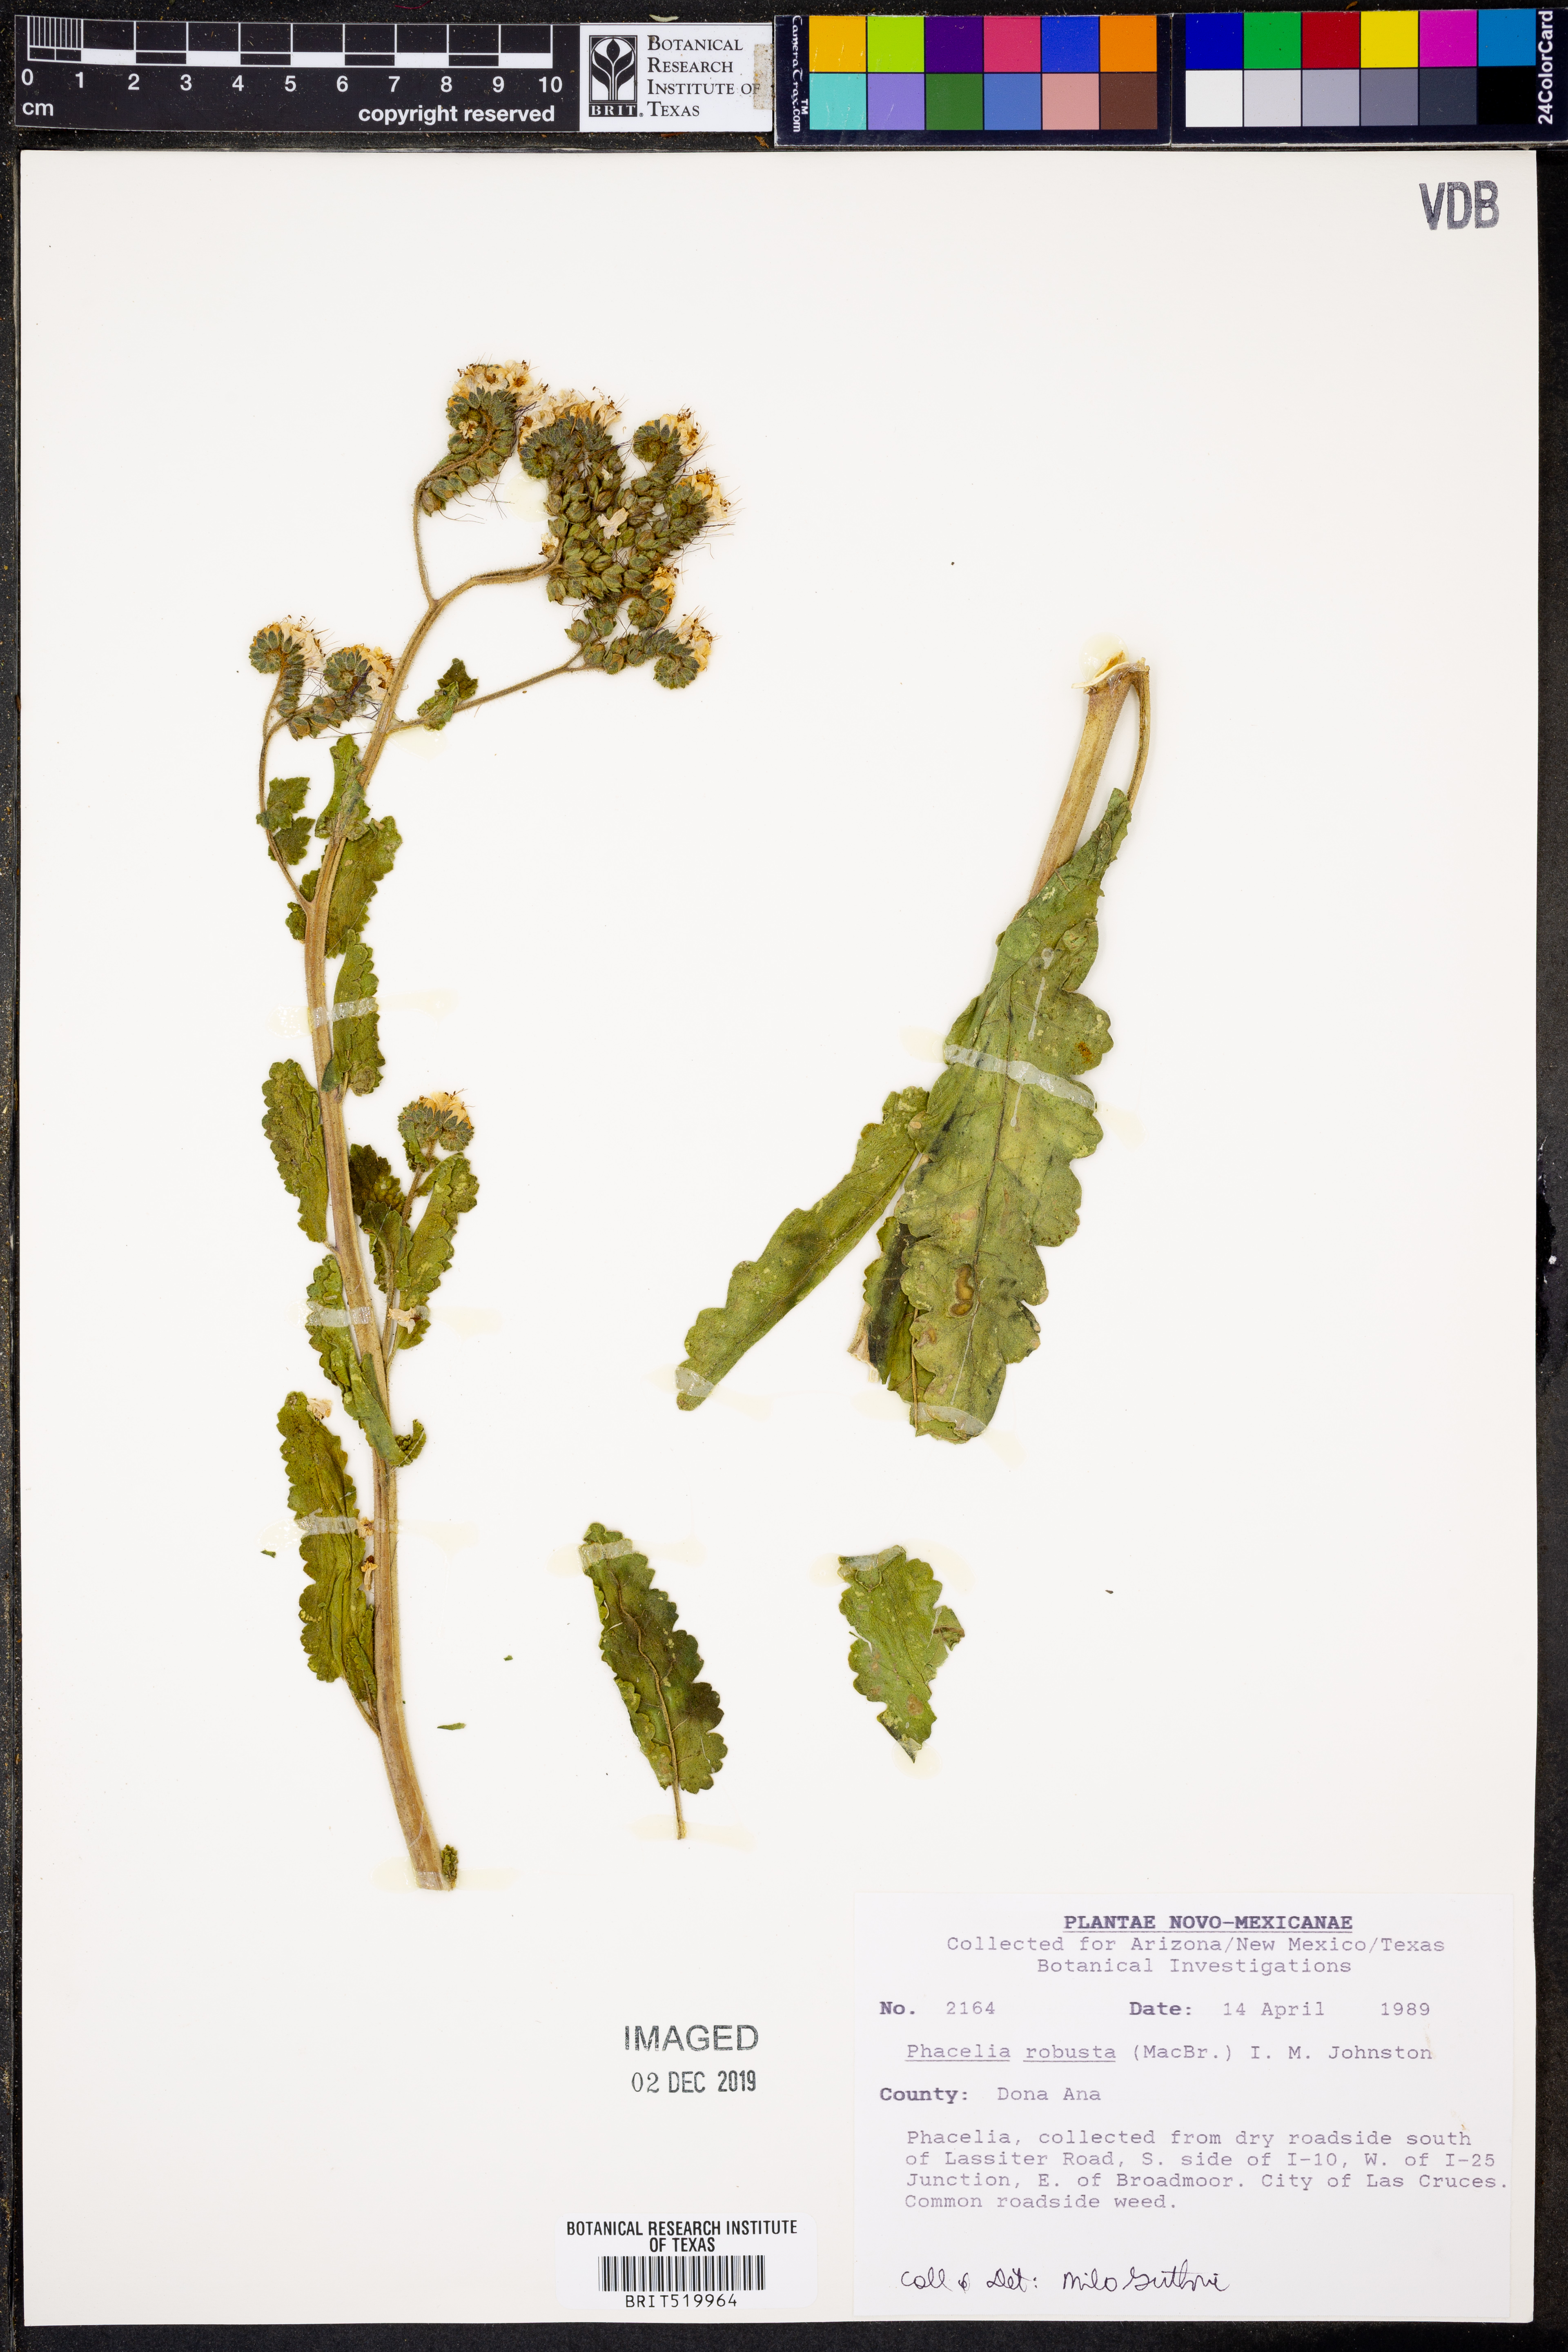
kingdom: Plantae
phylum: Tracheophyta
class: Magnoliopsida
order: Boraginales
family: Hydrophyllaceae
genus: Phacelia
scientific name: Phacelia robusta
